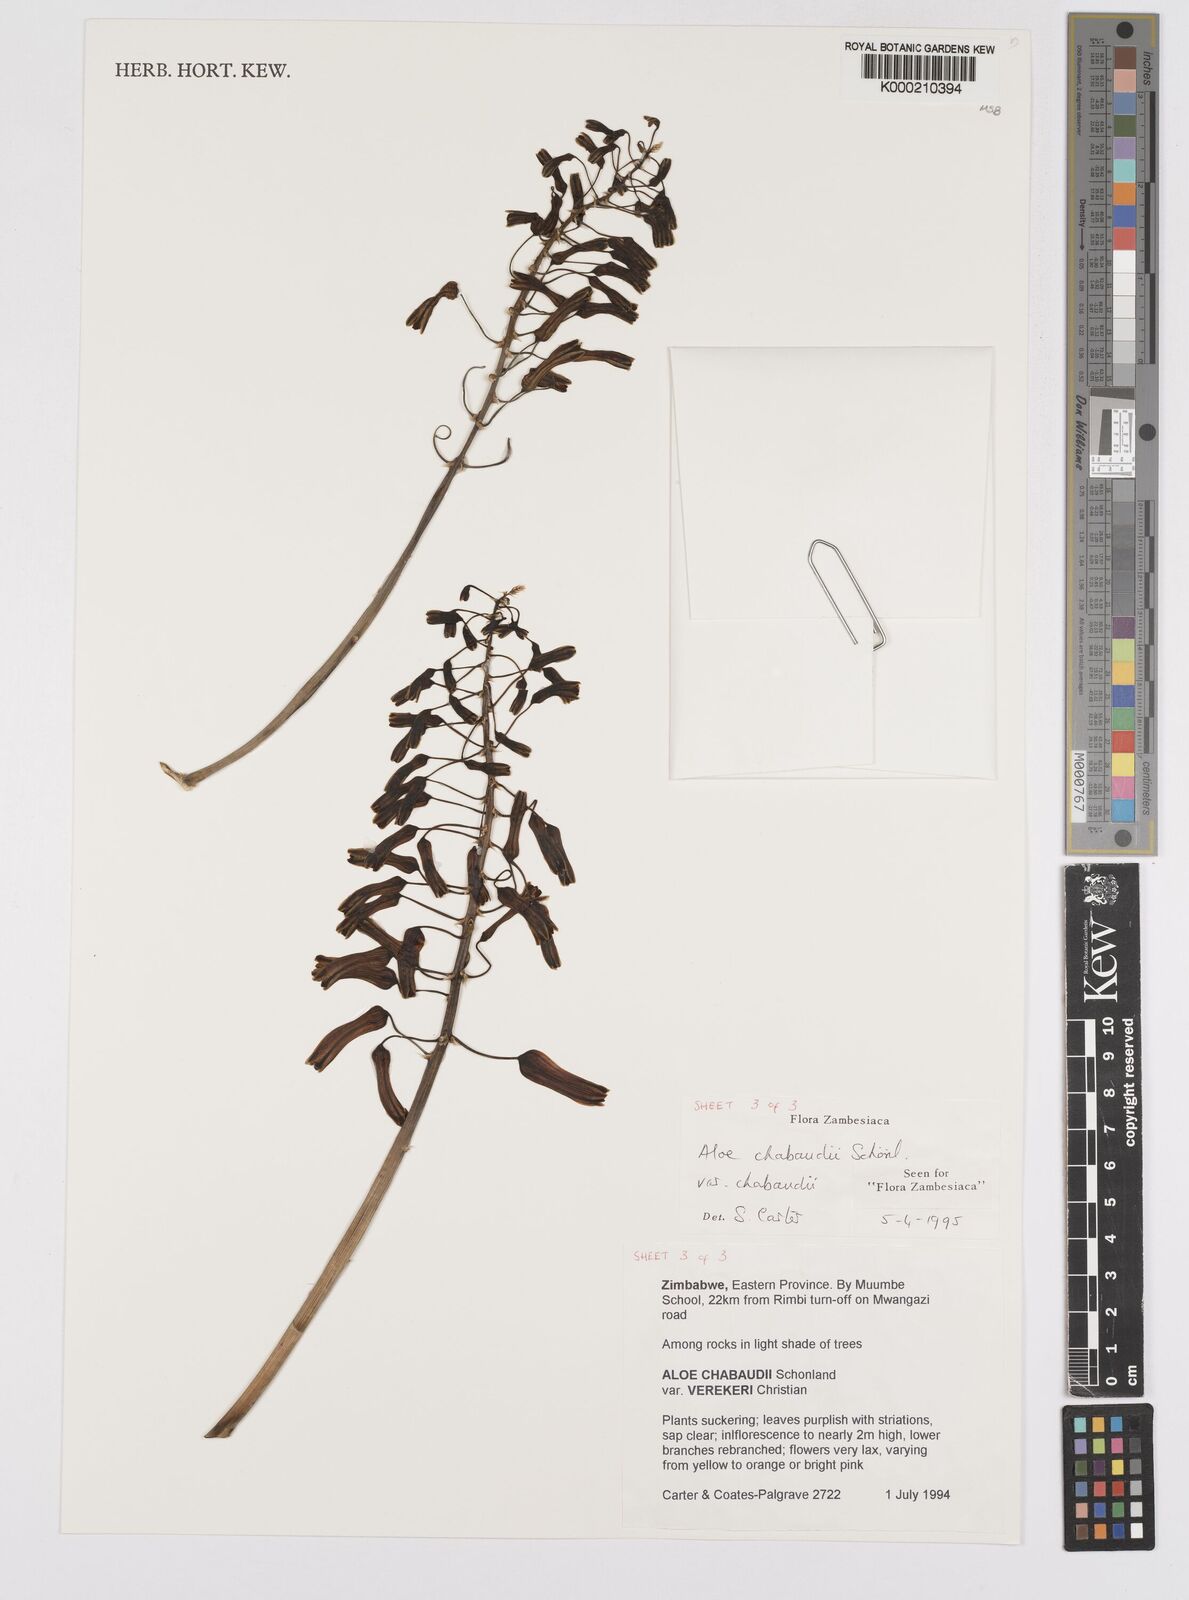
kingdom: Plantae
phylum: Tracheophyta
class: Liliopsida
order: Asparagales
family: Asphodelaceae
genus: Aloe
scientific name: Aloe chabaudii
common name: Chabaud's aloe
